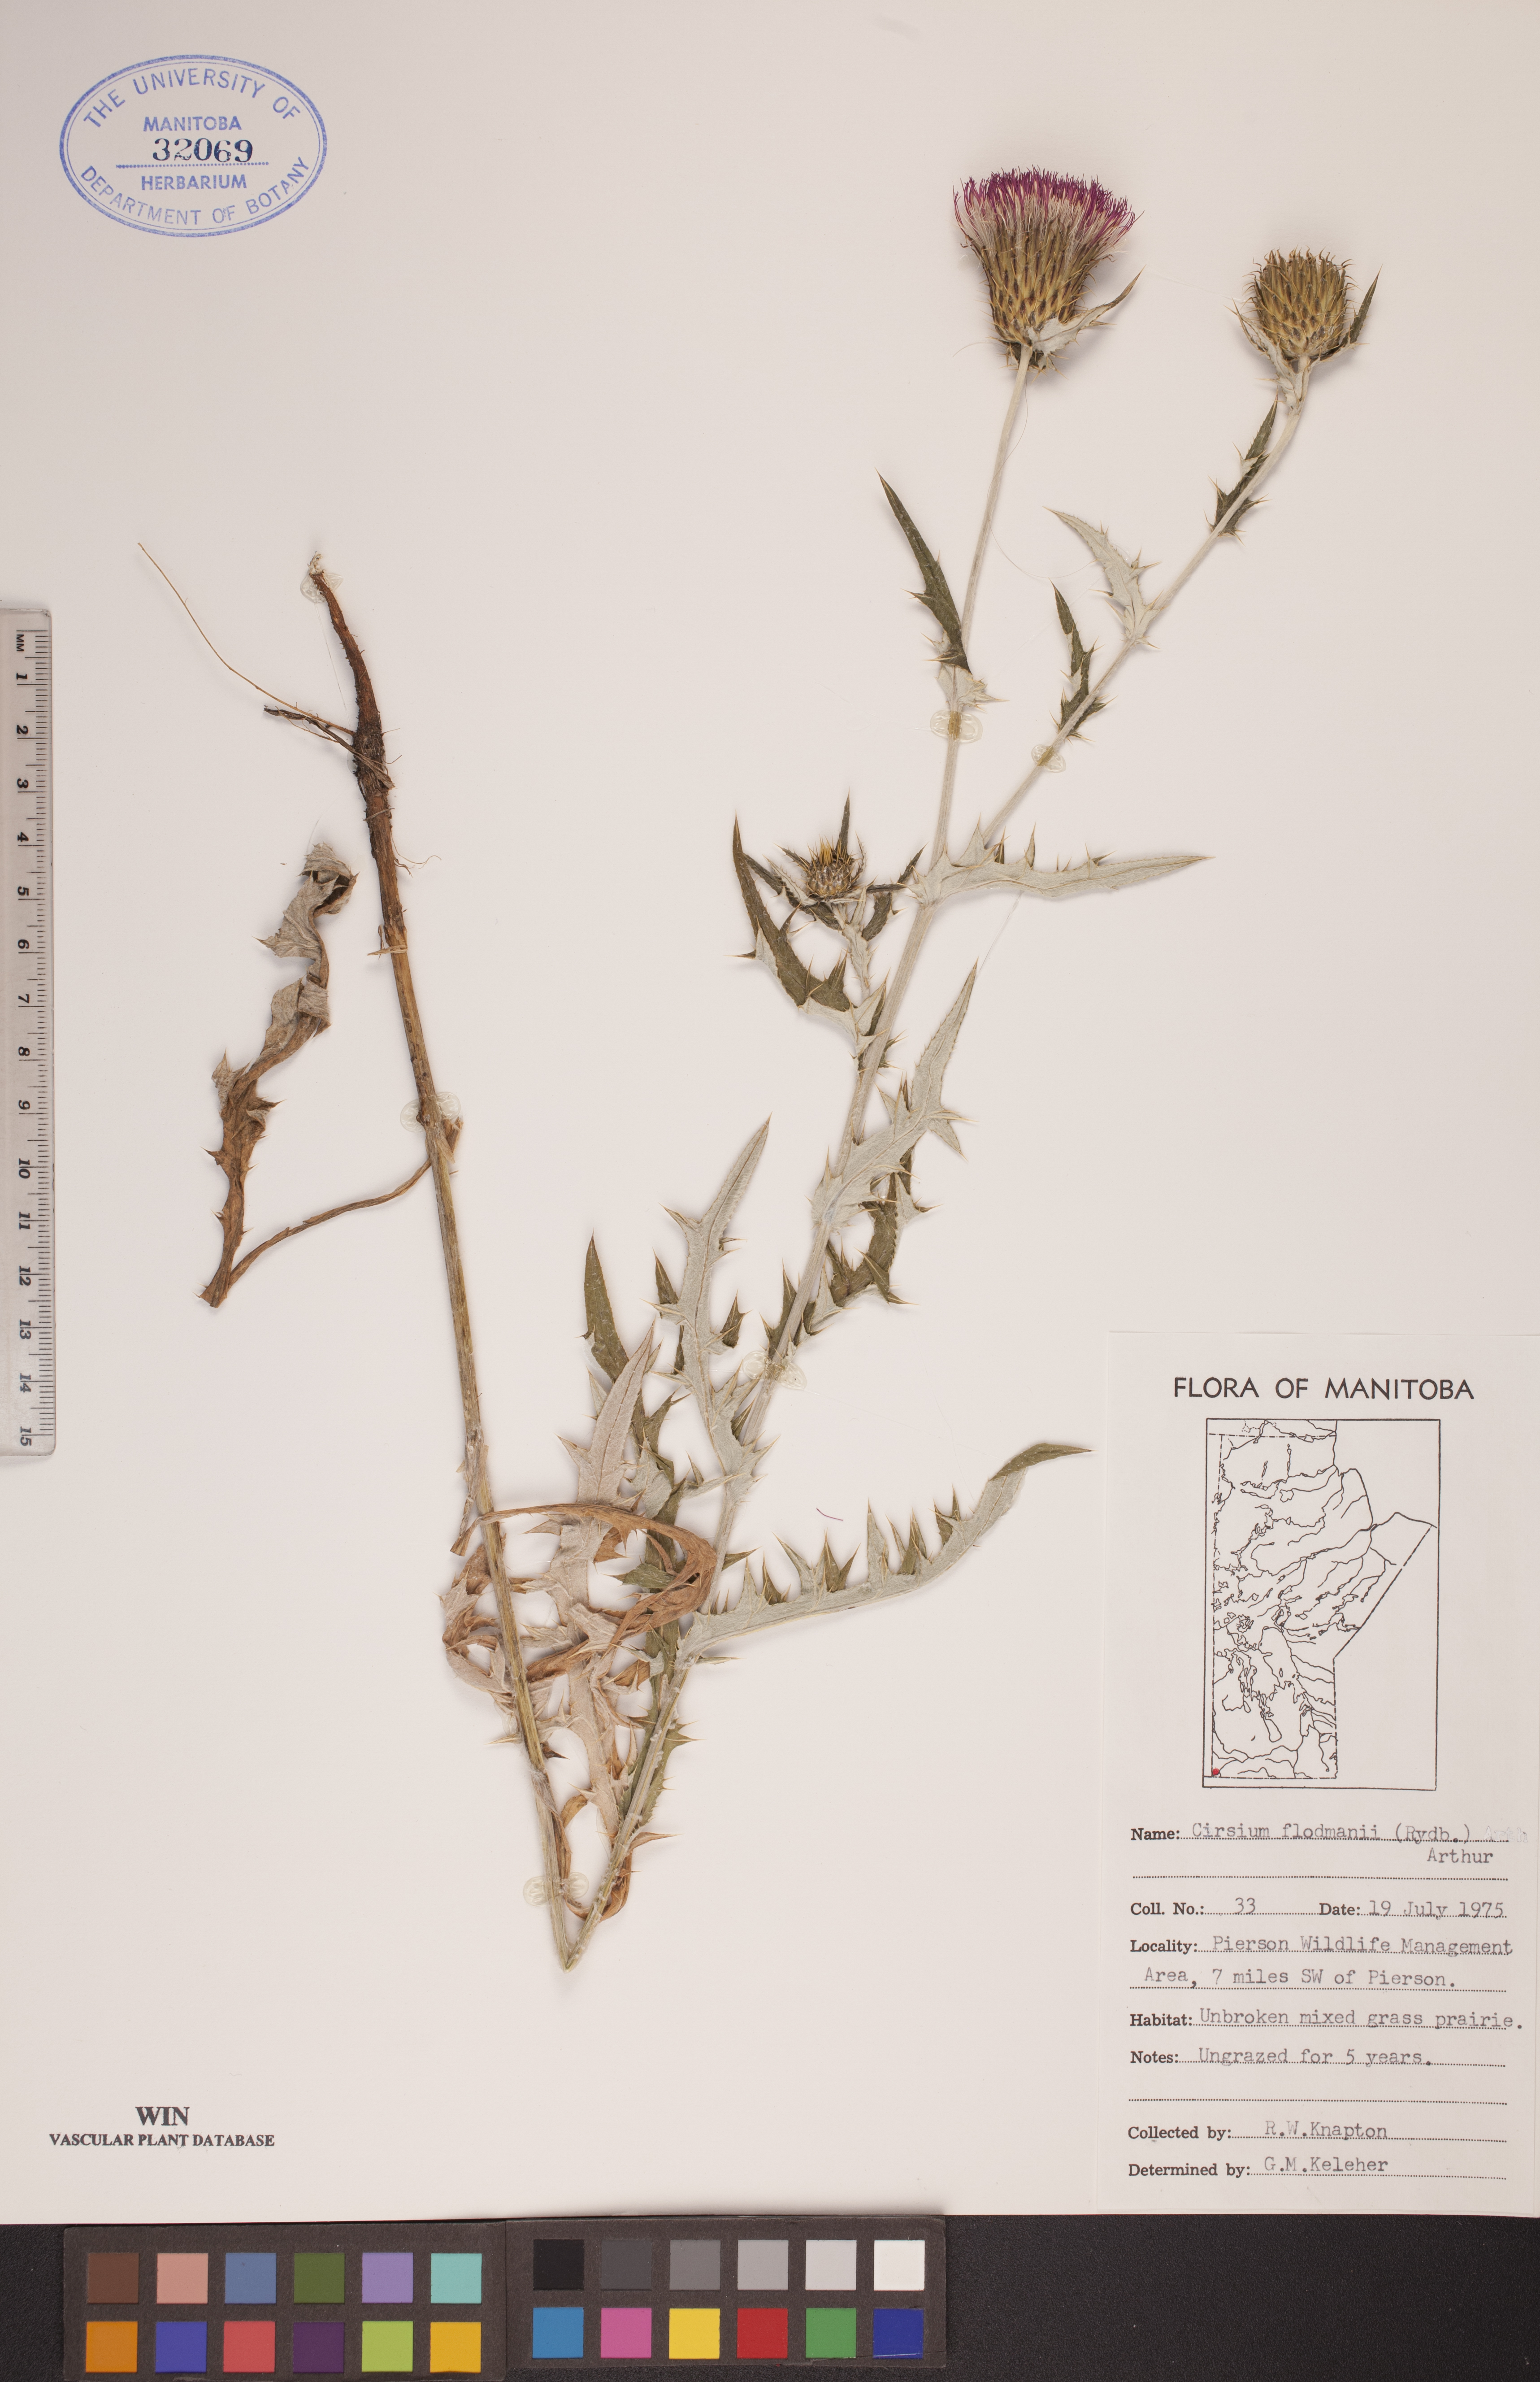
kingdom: Plantae
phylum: Tracheophyta
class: Magnoliopsida
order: Asterales
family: Asteraceae
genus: Cirsium
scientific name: Cirsium flodmanii
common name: Flodman's thistle
